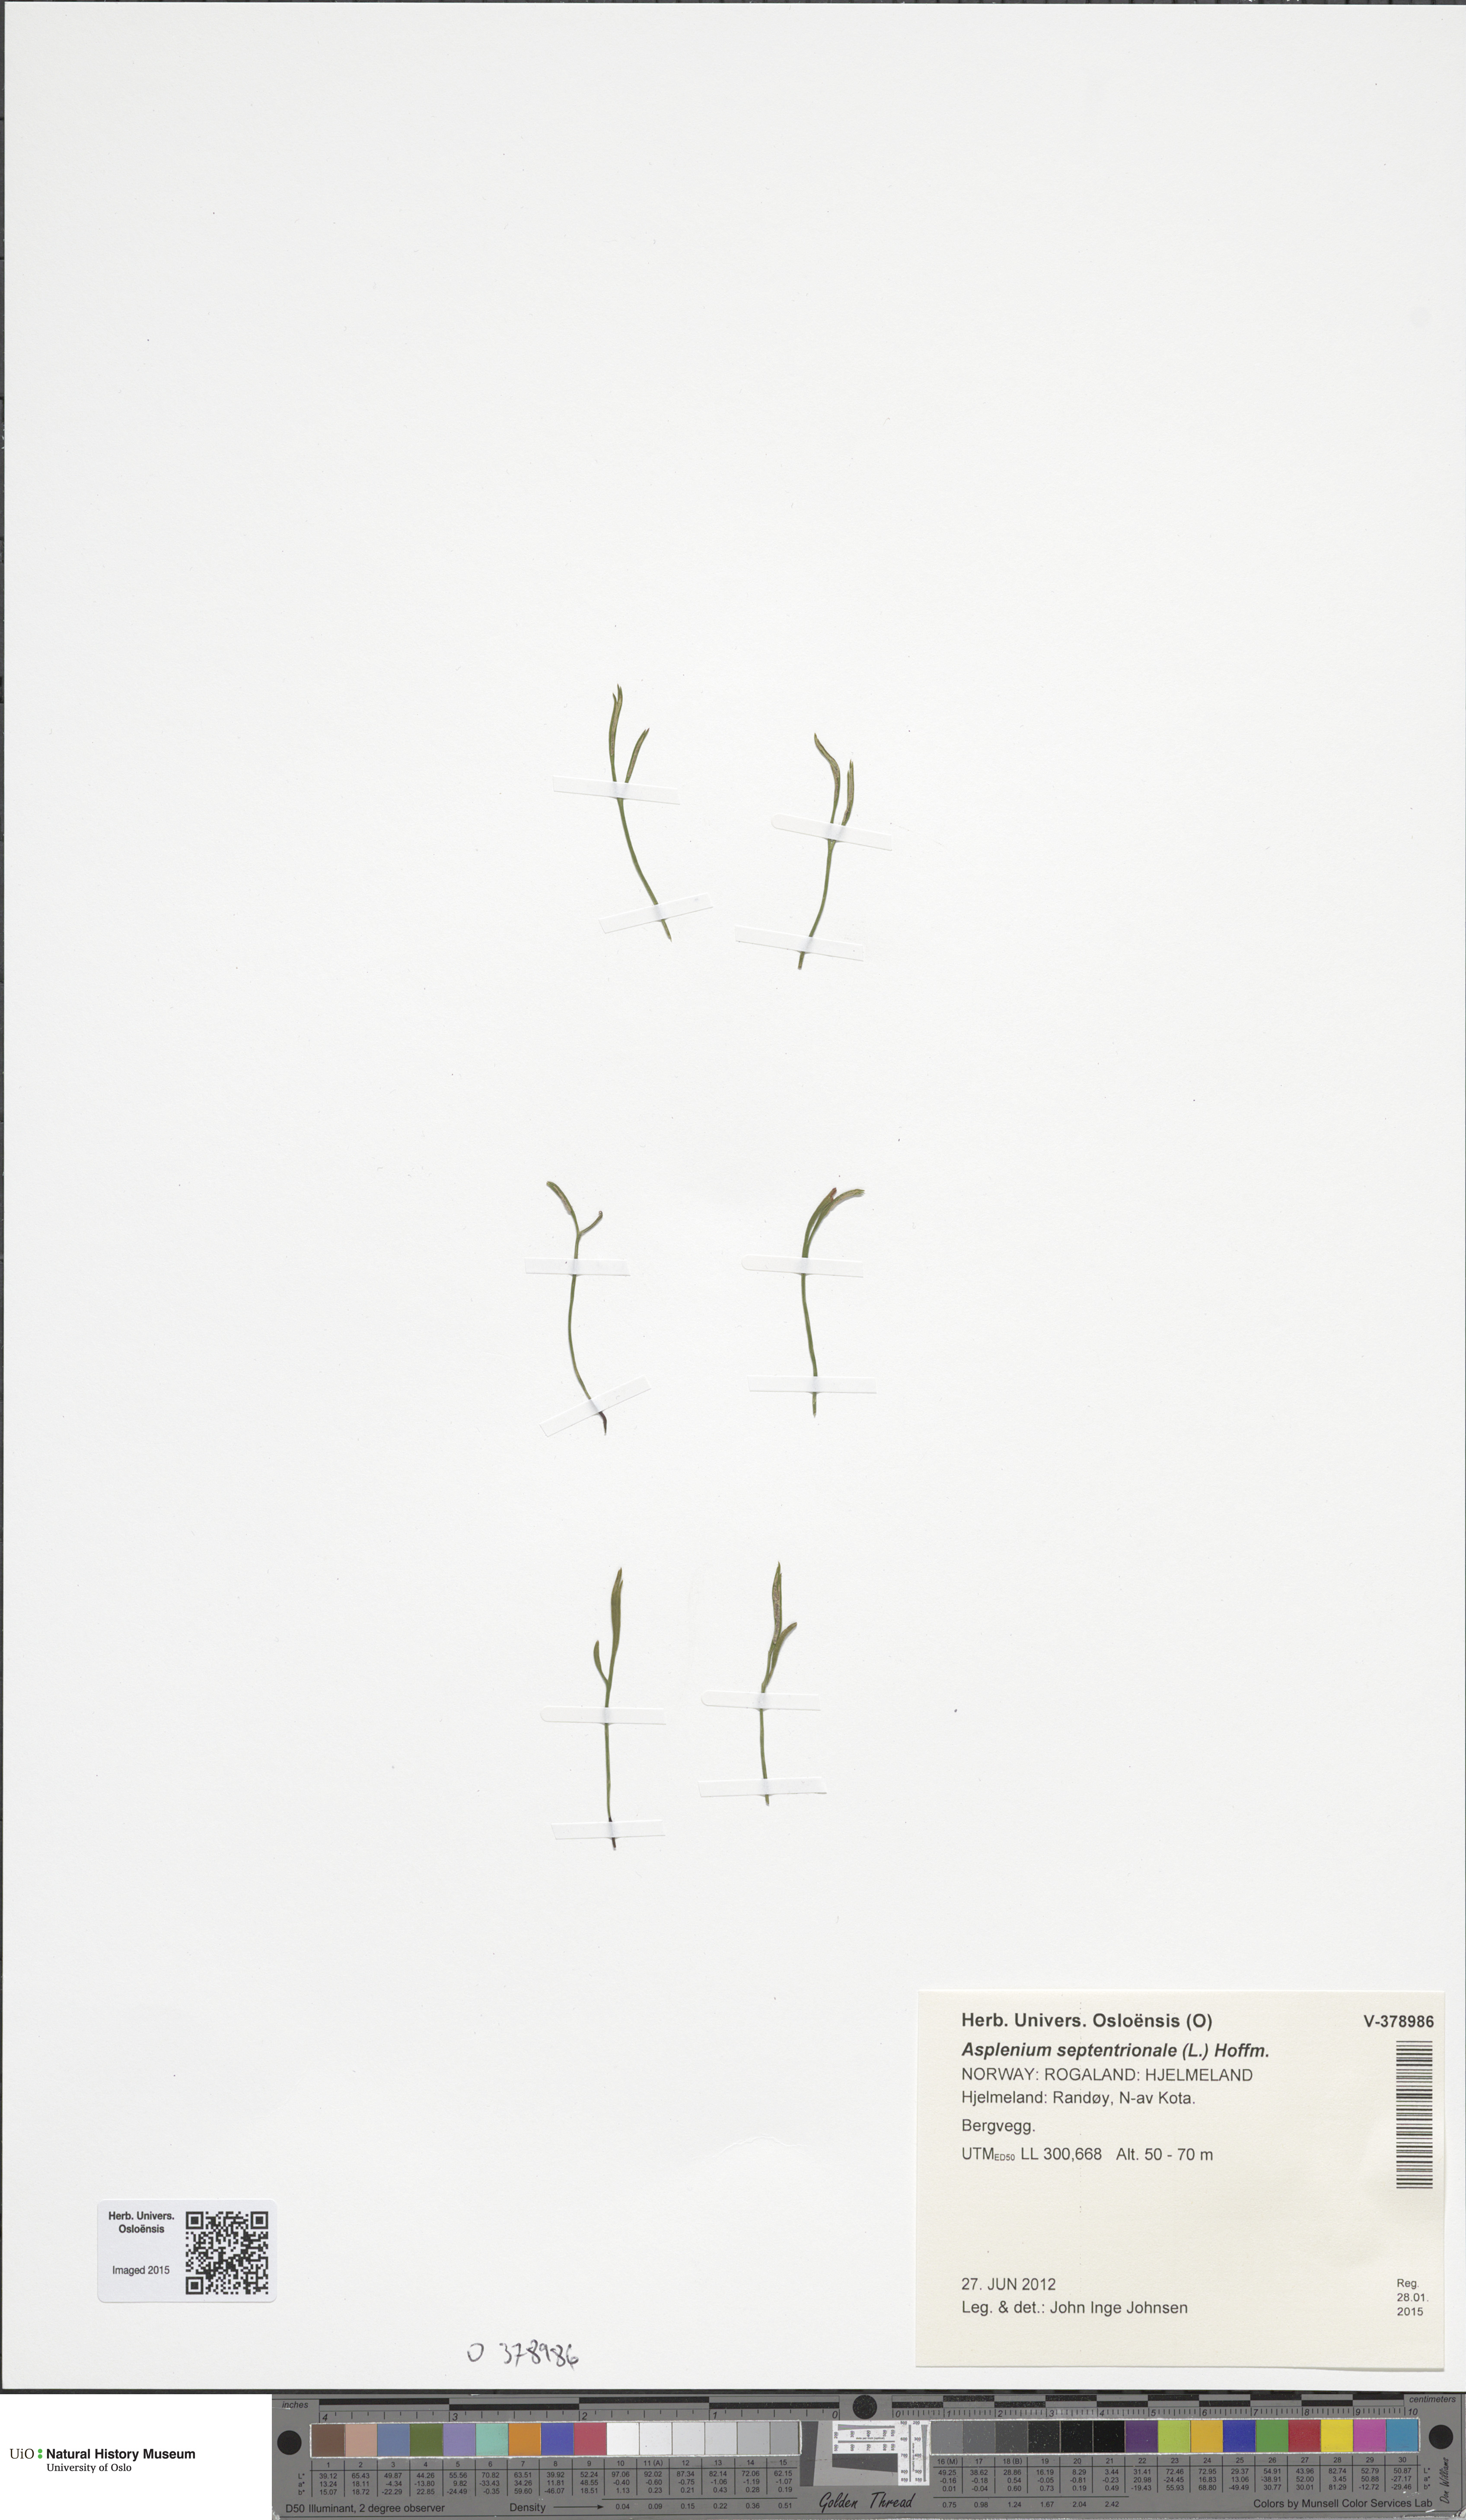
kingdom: Plantae
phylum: Tracheophyta
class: Polypodiopsida
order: Polypodiales
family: Aspleniaceae
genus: Asplenium
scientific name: Asplenium septentrionale
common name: Forked spleenwort
